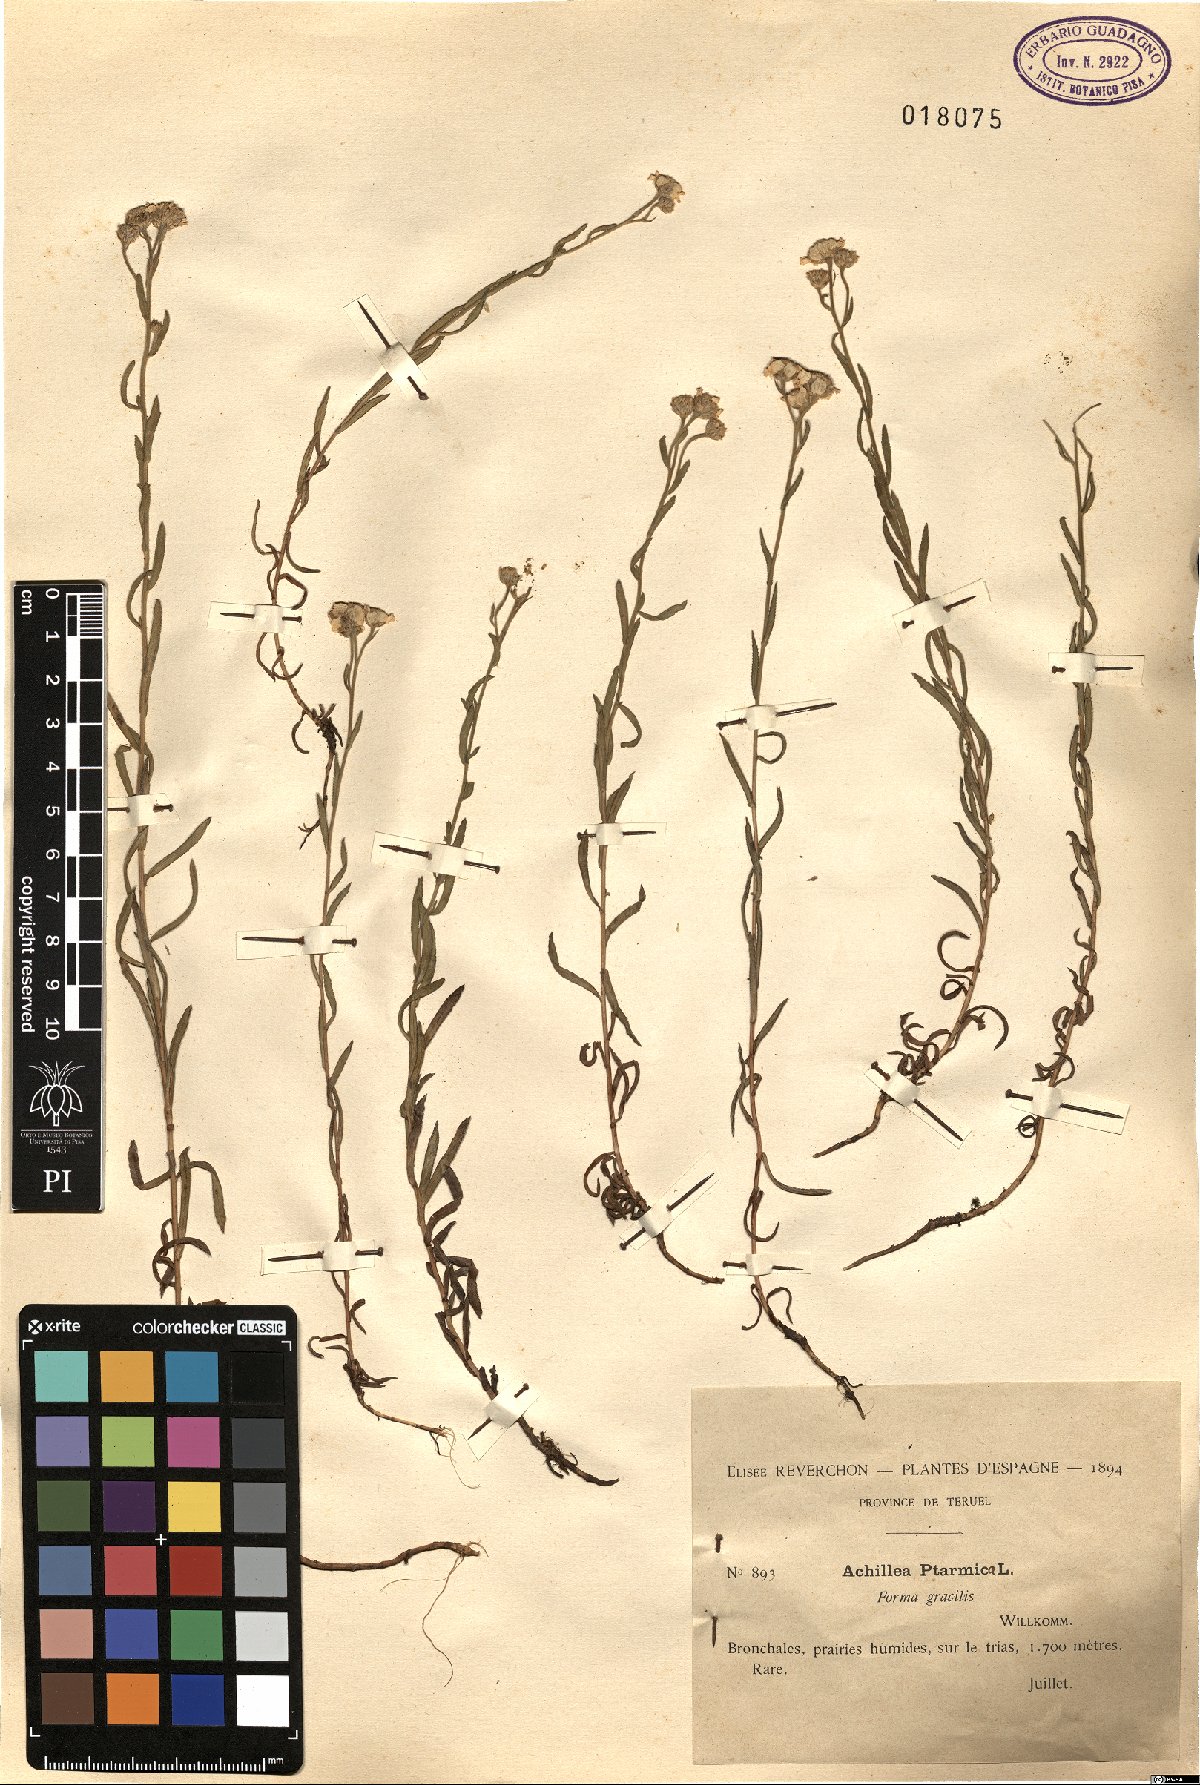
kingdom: Plantae
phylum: Tracheophyta
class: Magnoliopsida
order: Asterales
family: Asteraceae
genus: Achillea
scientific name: Achillea ptarmica
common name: Sneezeweed
